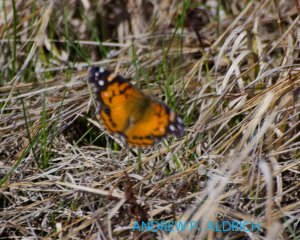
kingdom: Animalia
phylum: Arthropoda
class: Insecta
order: Lepidoptera
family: Nymphalidae
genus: Vanessa
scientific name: Vanessa virginiensis
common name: American Lady
